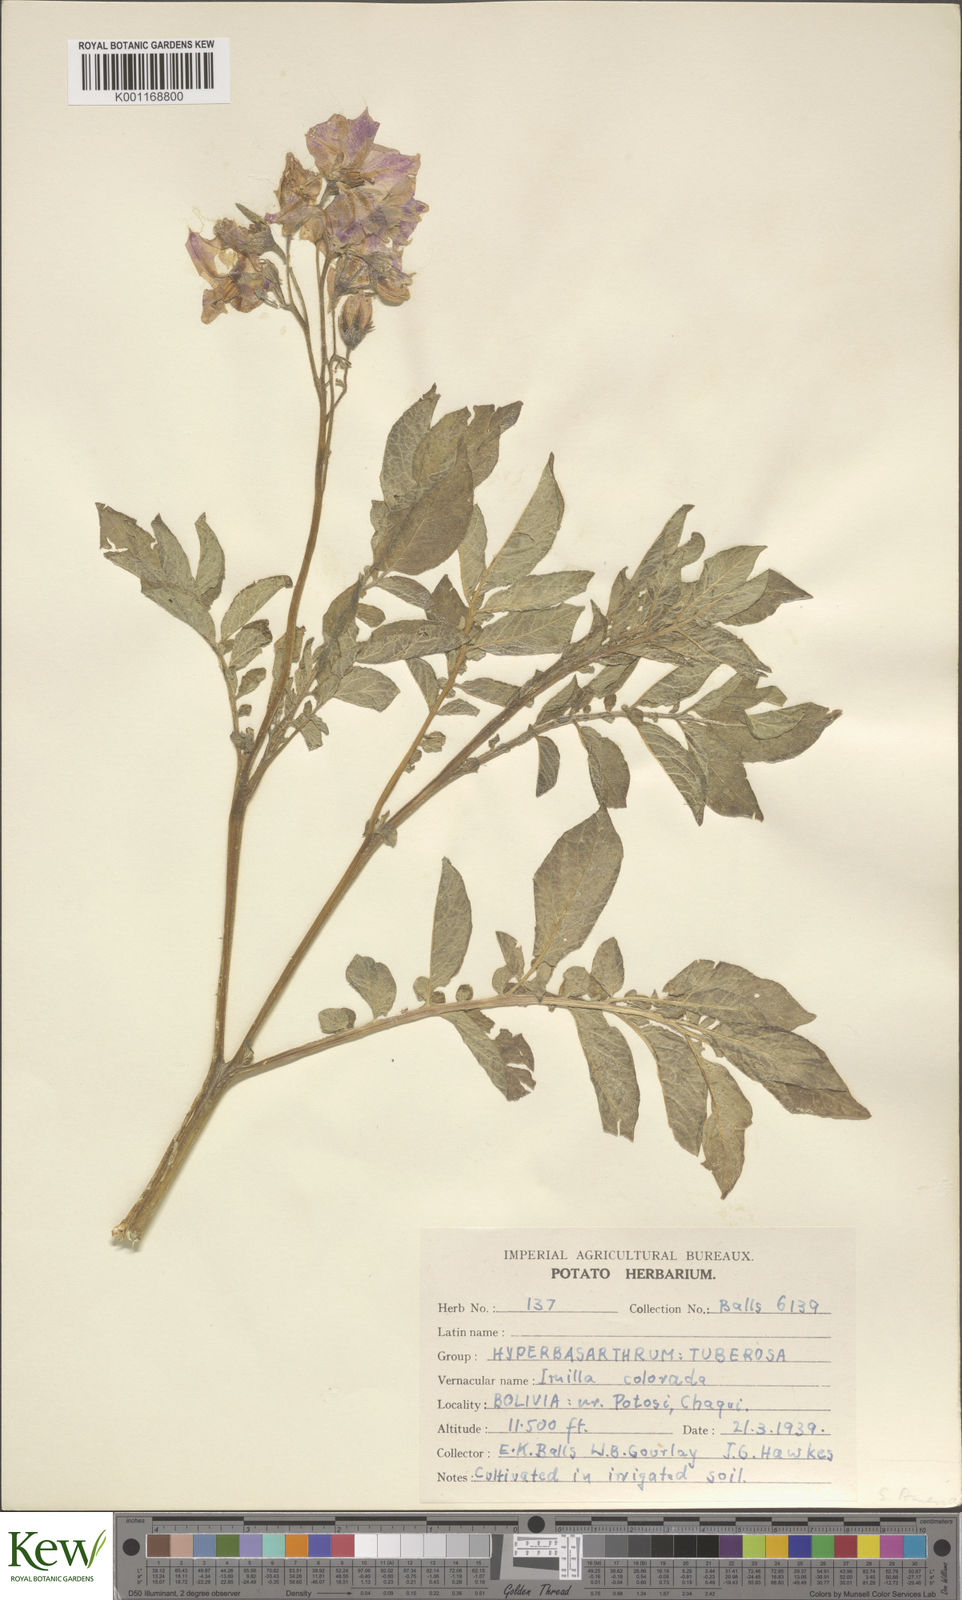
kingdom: Plantae
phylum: Tracheophyta
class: Magnoliopsida
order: Solanales
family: Solanaceae
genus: Solanum
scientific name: Solanum chaucha
